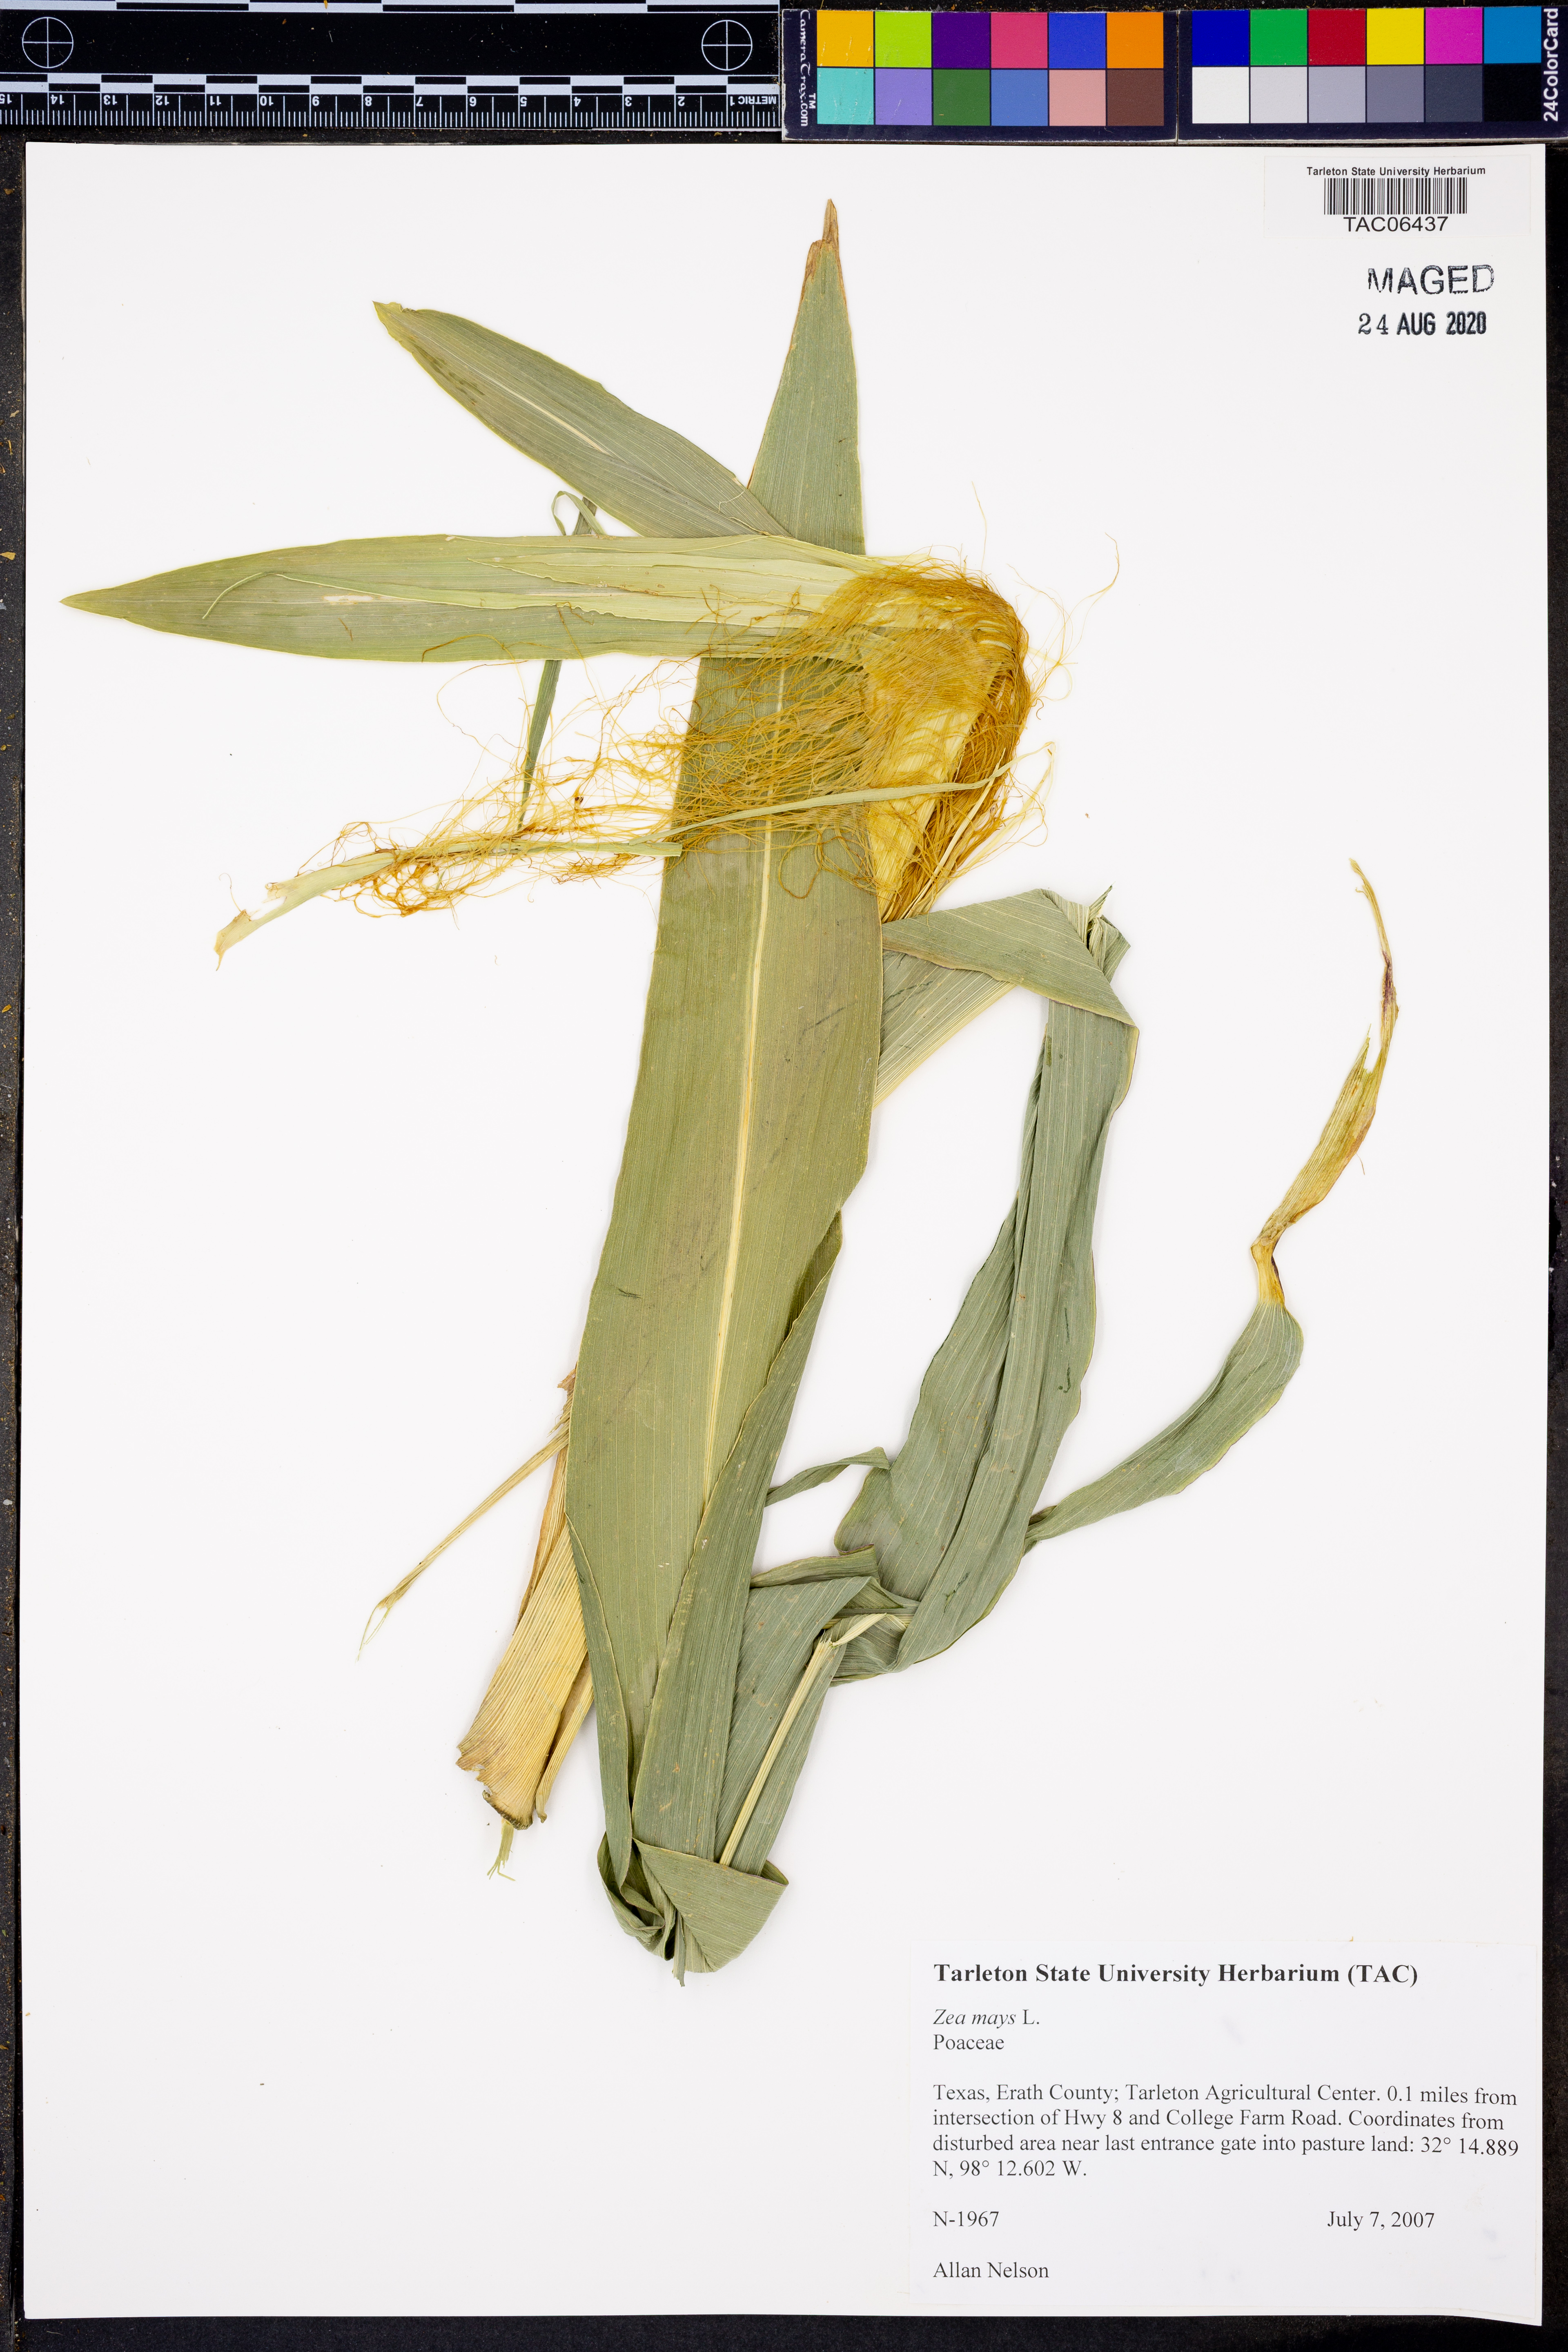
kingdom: Plantae
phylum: Tracheophyta
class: Liliopsida
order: Poales
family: Poaceae
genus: Zea
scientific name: Zea mays
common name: Maize
